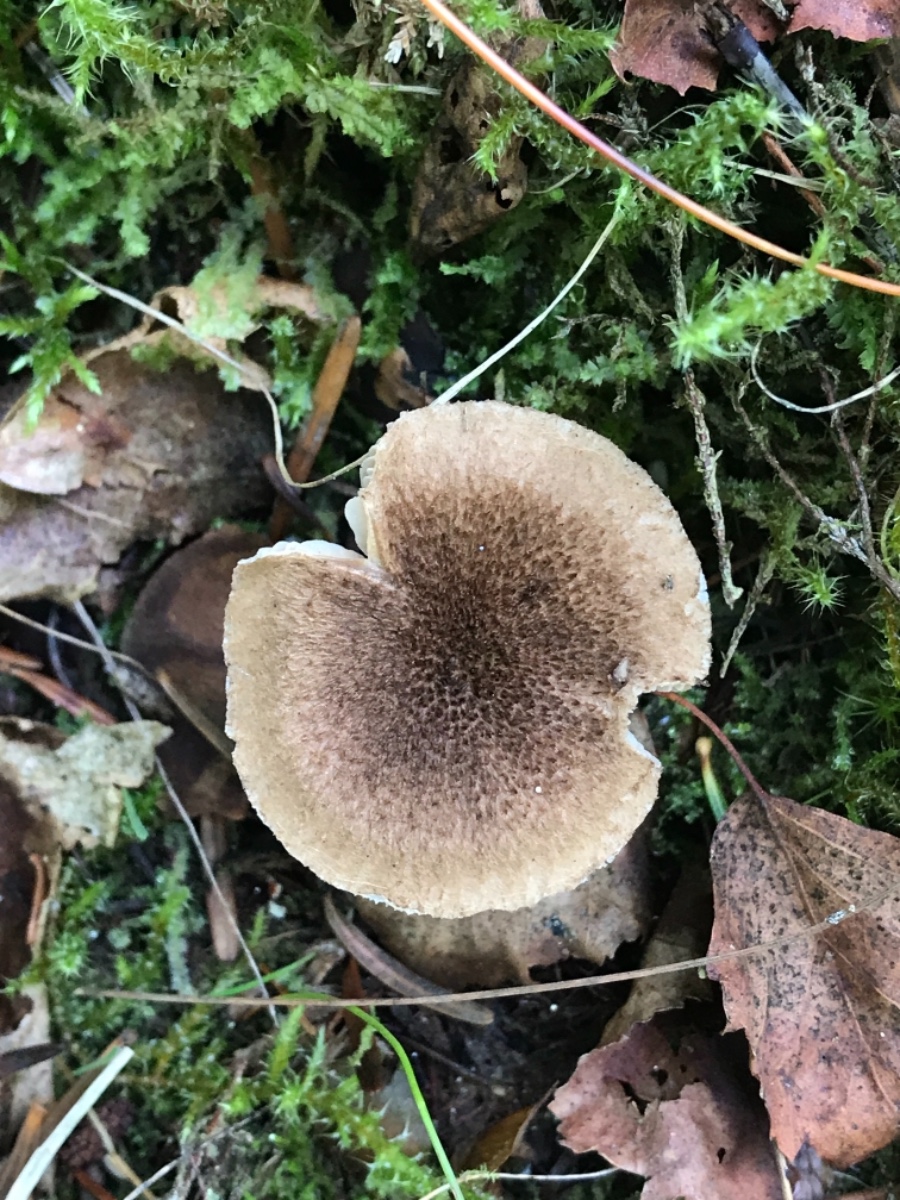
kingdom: Fungi
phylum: Basidiomycota
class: Agaricomycetes
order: Agaricales
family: Inocybaceae
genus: Inocybe
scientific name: Inocybe
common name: trævlhat
